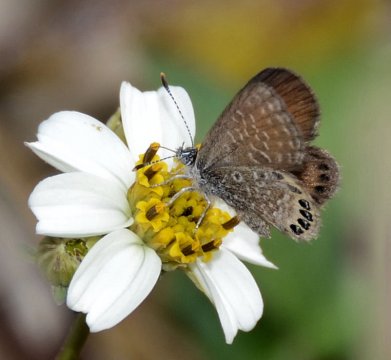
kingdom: Animalia
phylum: Arthropoda
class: Insecta
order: Lepidoptera
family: Lycaenidae
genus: Brephidium
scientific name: Brephidium isophthalma
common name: Eastern Pygmy-Blue
